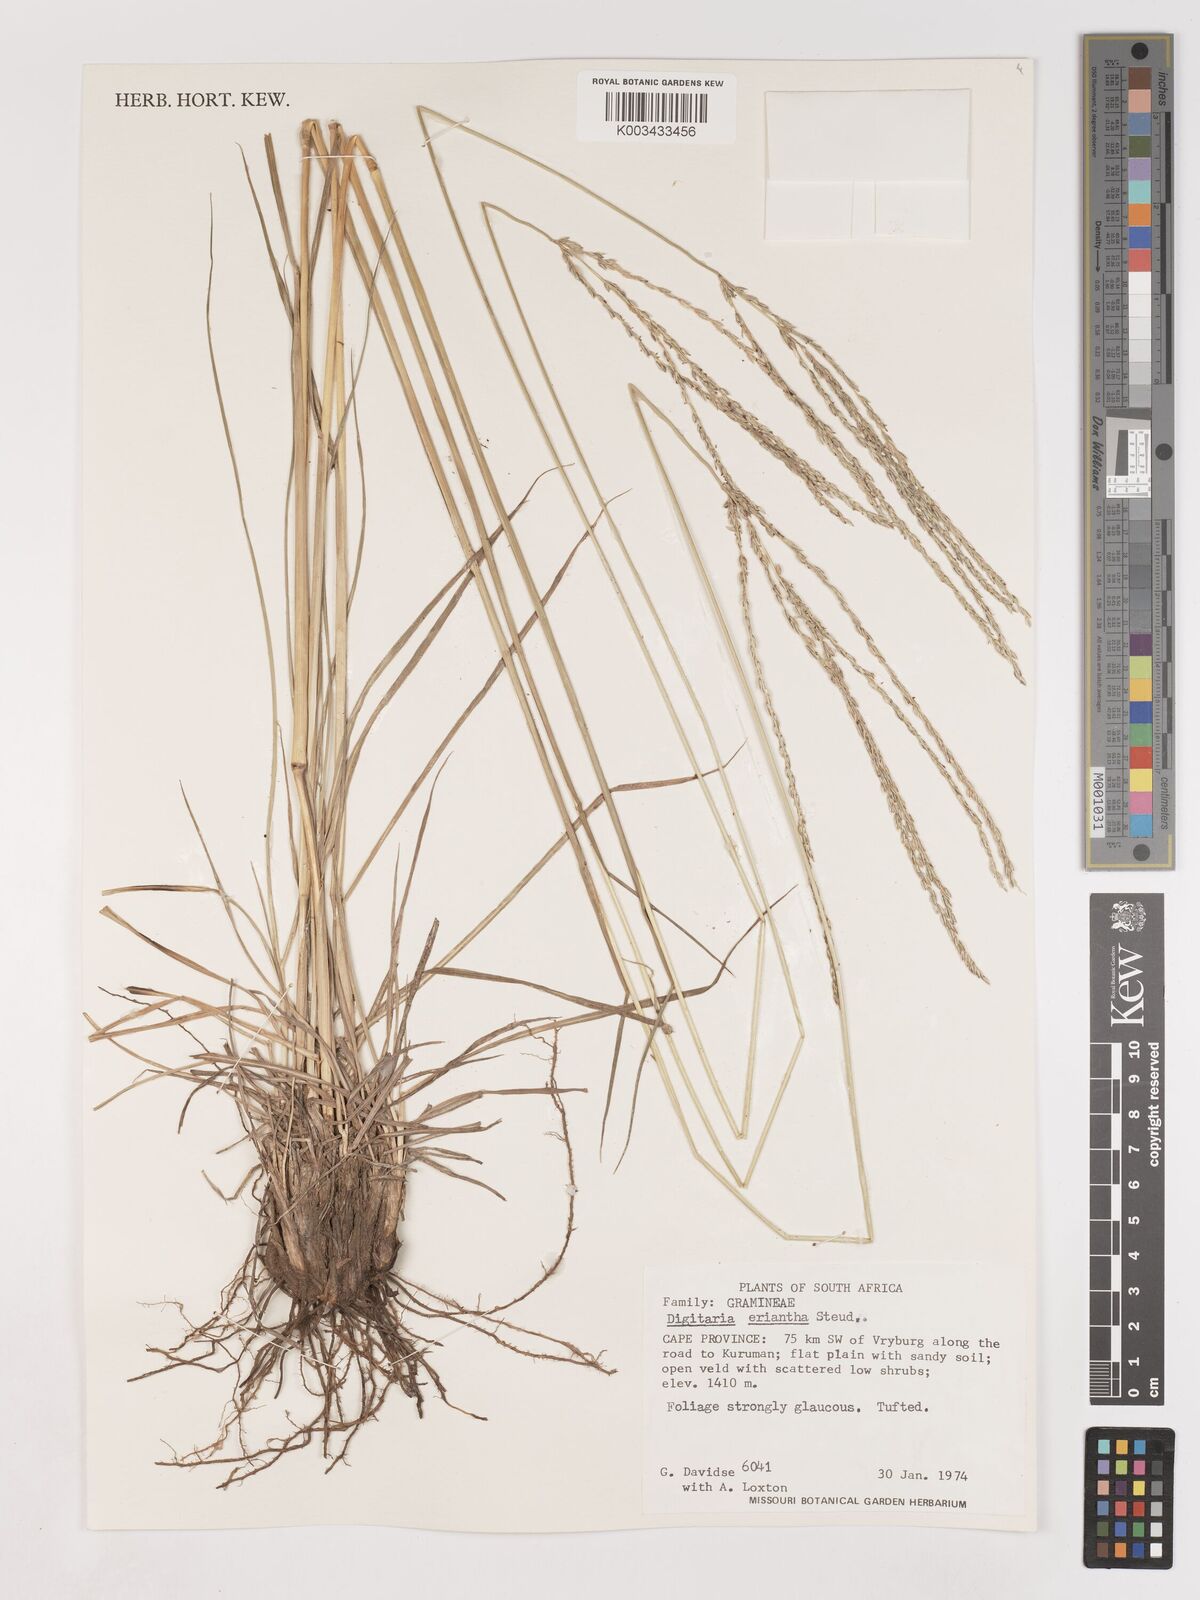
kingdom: Plantae
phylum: Tracheophyta
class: Liliopsida
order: Poales
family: Poaceae
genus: Digitaria
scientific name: Digitaria eriantha
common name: Digitgrass
